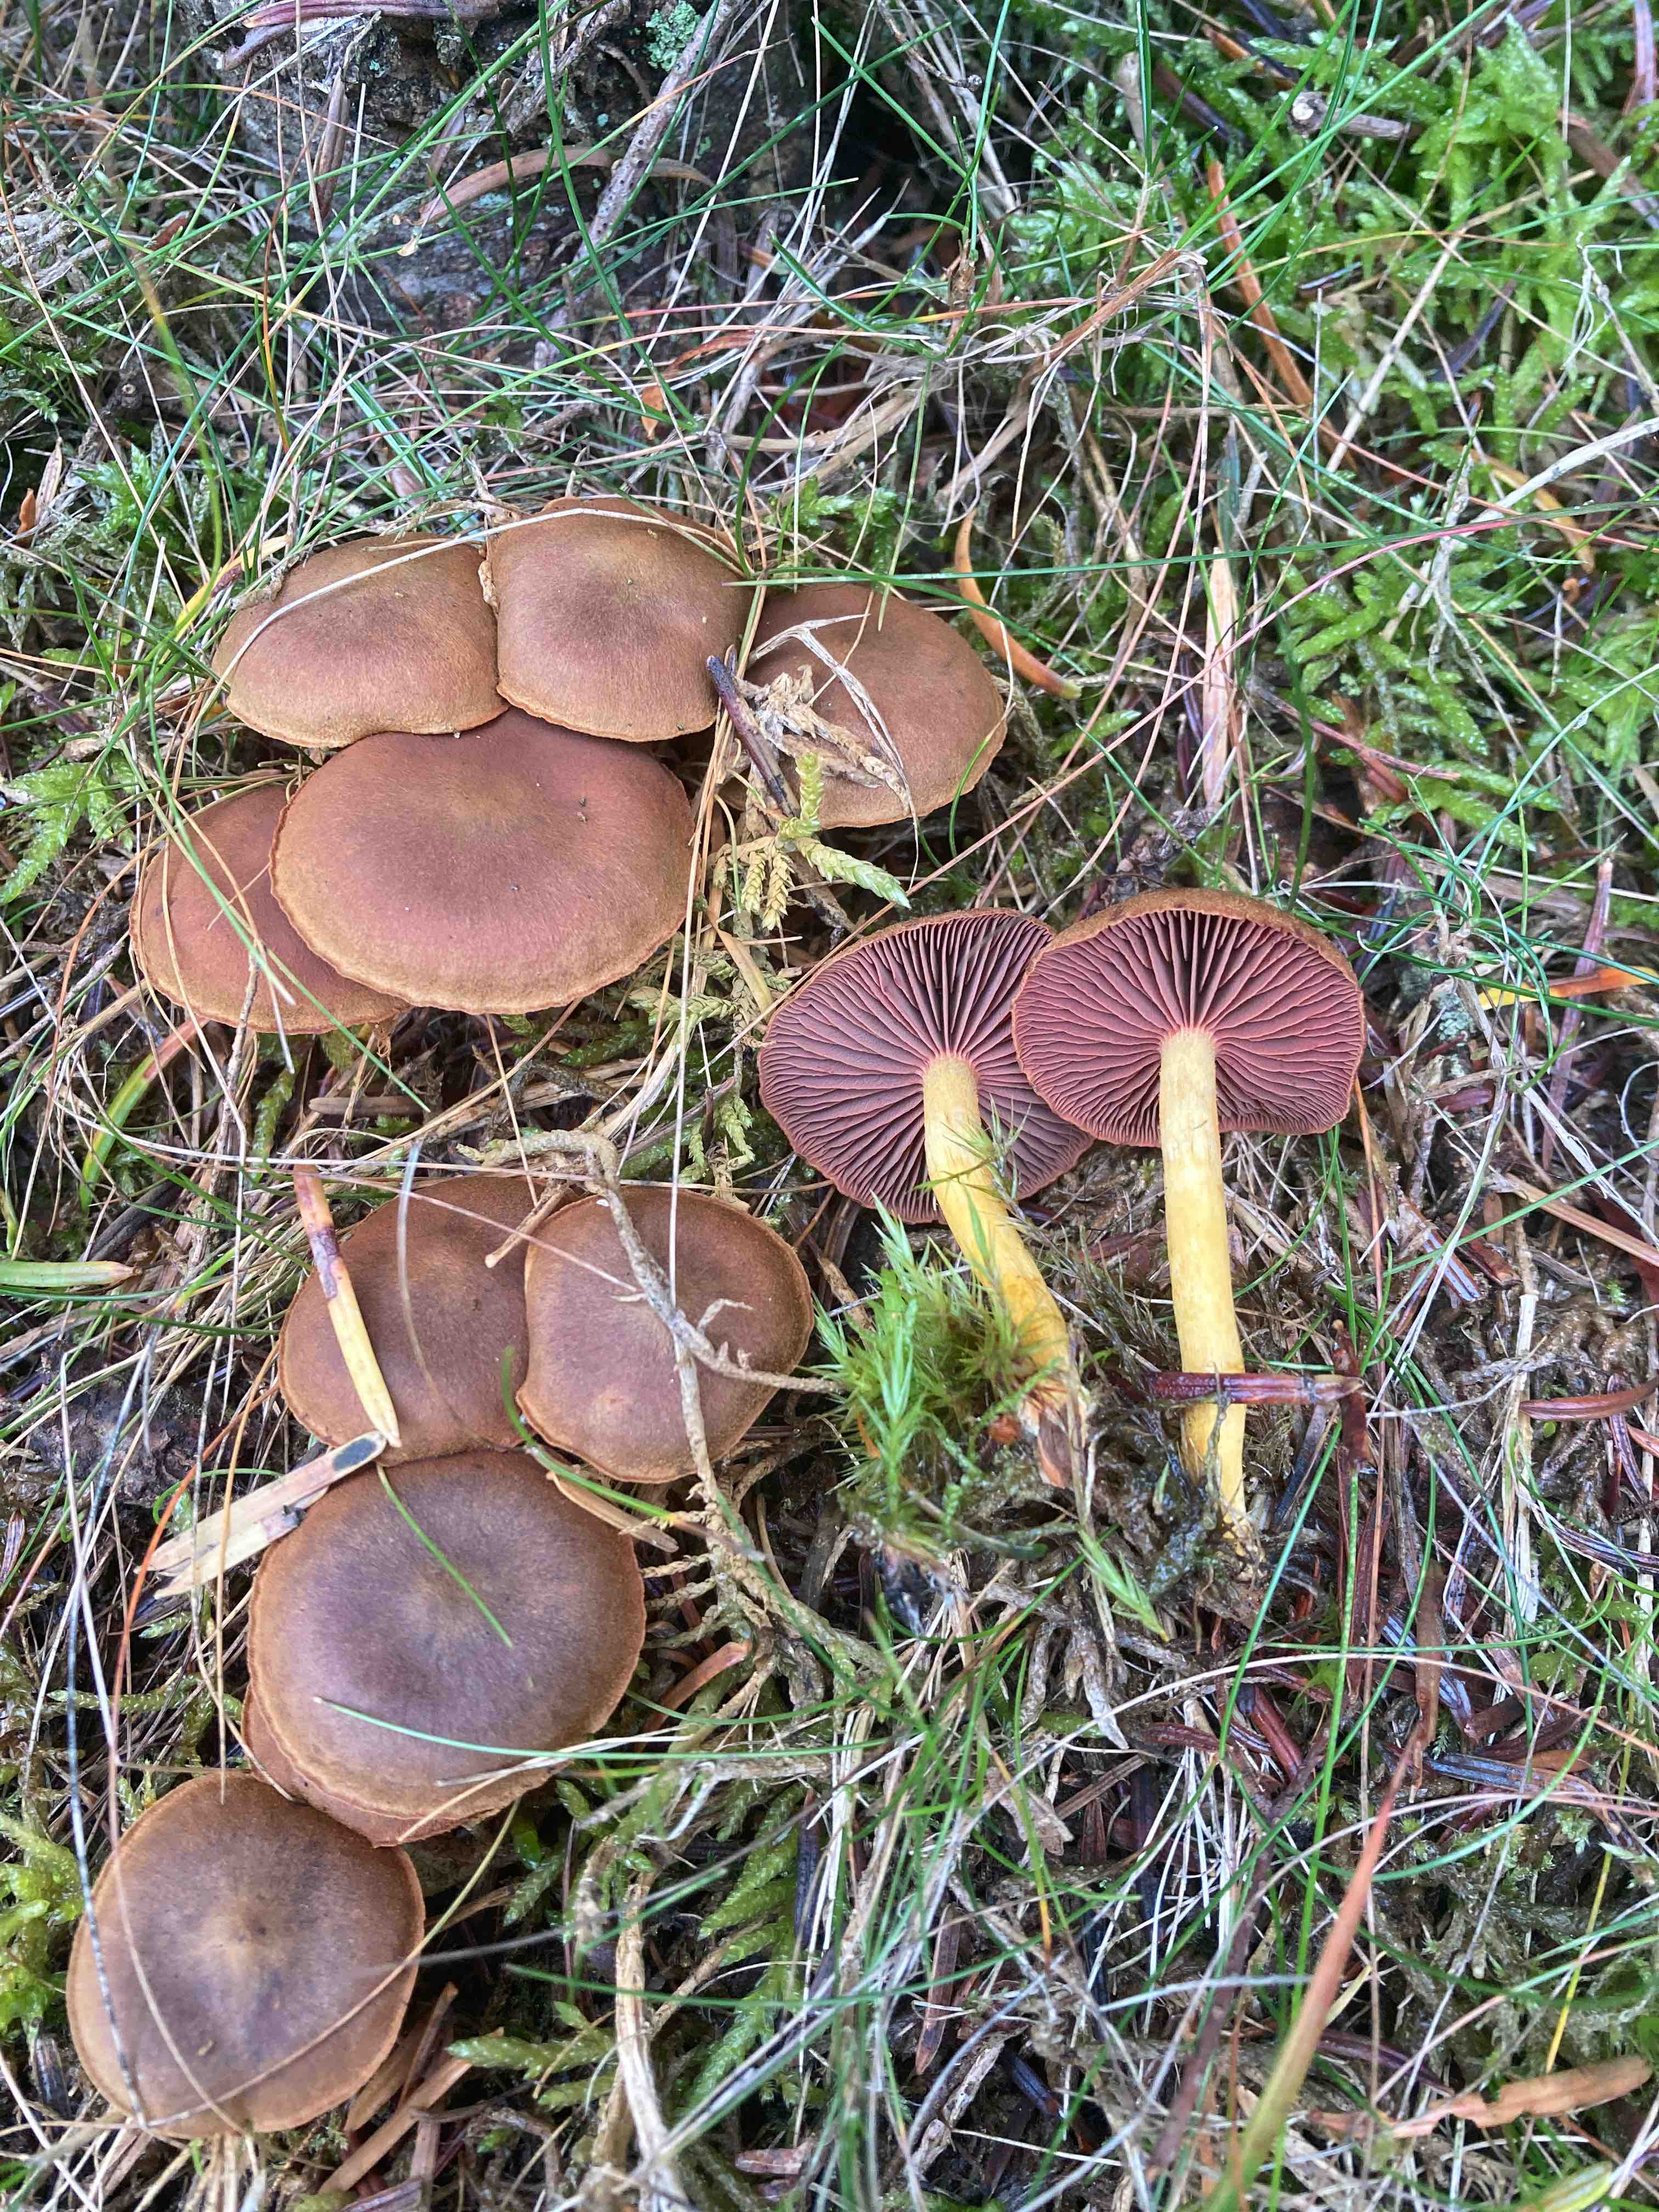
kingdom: Fungi
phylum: Basidiomycota
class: Agaricomycetes
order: Agaricales
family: Cortinariaceae
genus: Cortinarius
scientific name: Cortinarius
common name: cinnoberbladet slørhat
